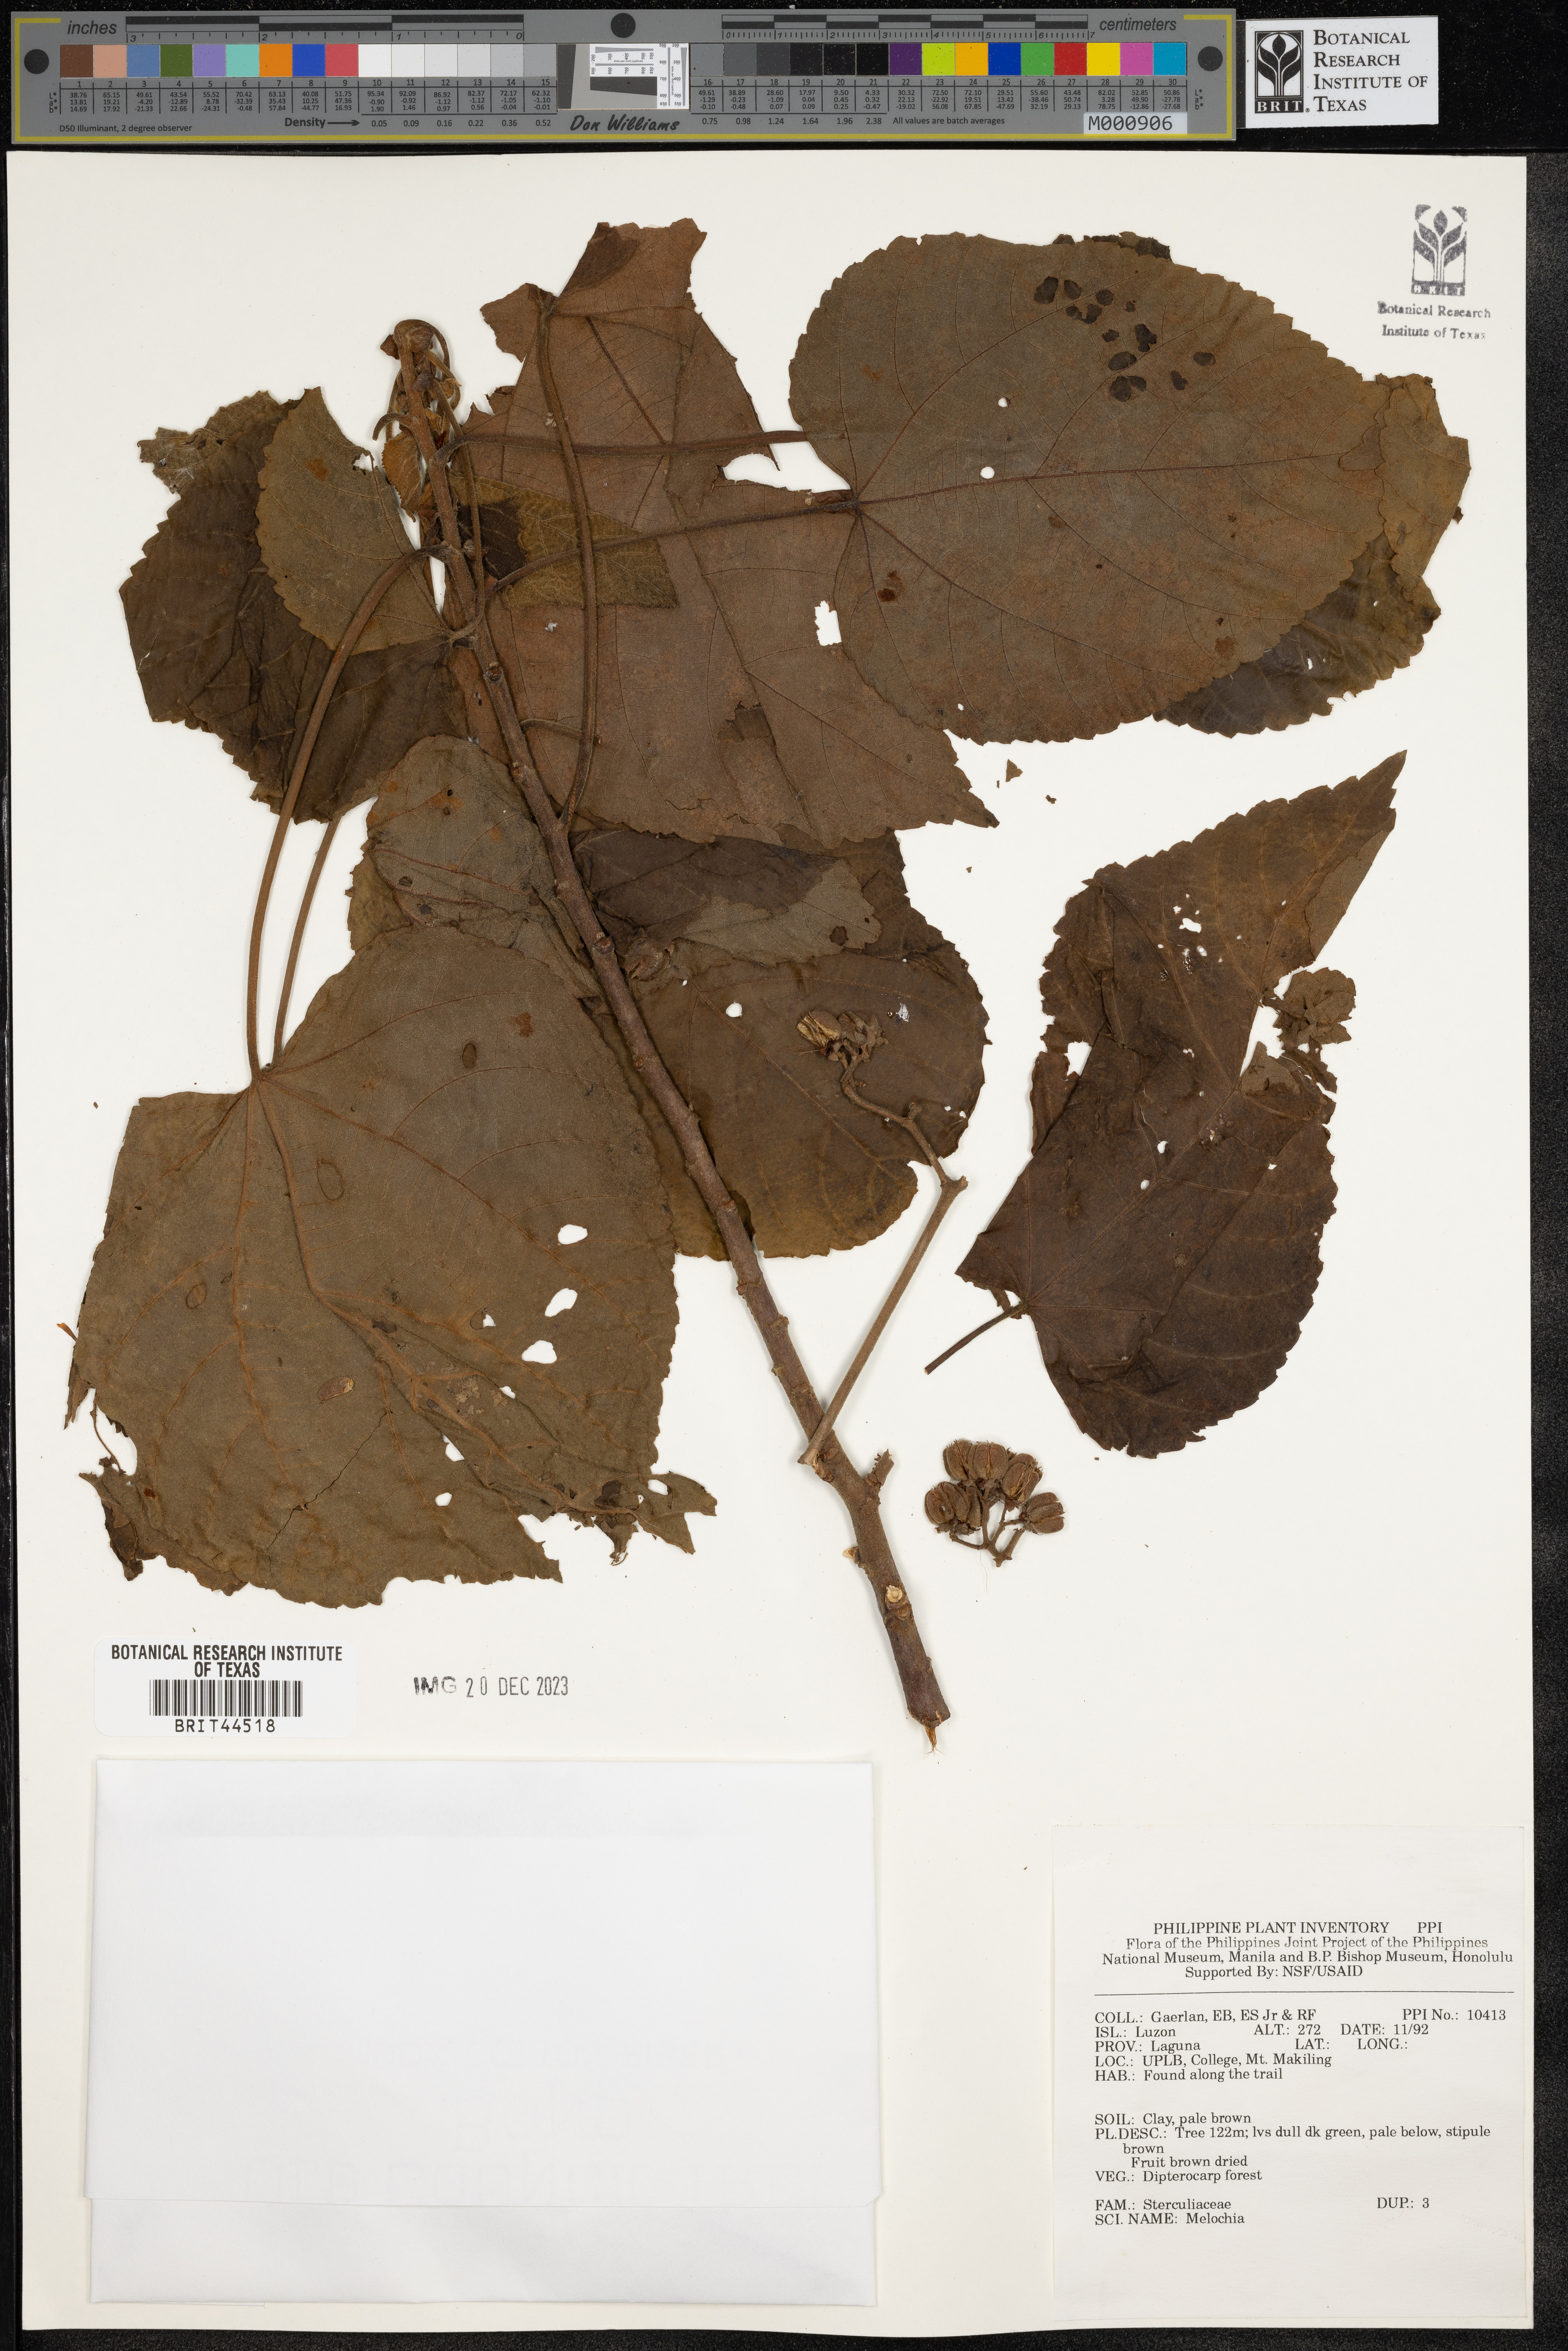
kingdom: Plantae
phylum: Tracheophyta
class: Magnoliopsida
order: Malvales
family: Malvaceae
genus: Melochia
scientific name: Melochia
